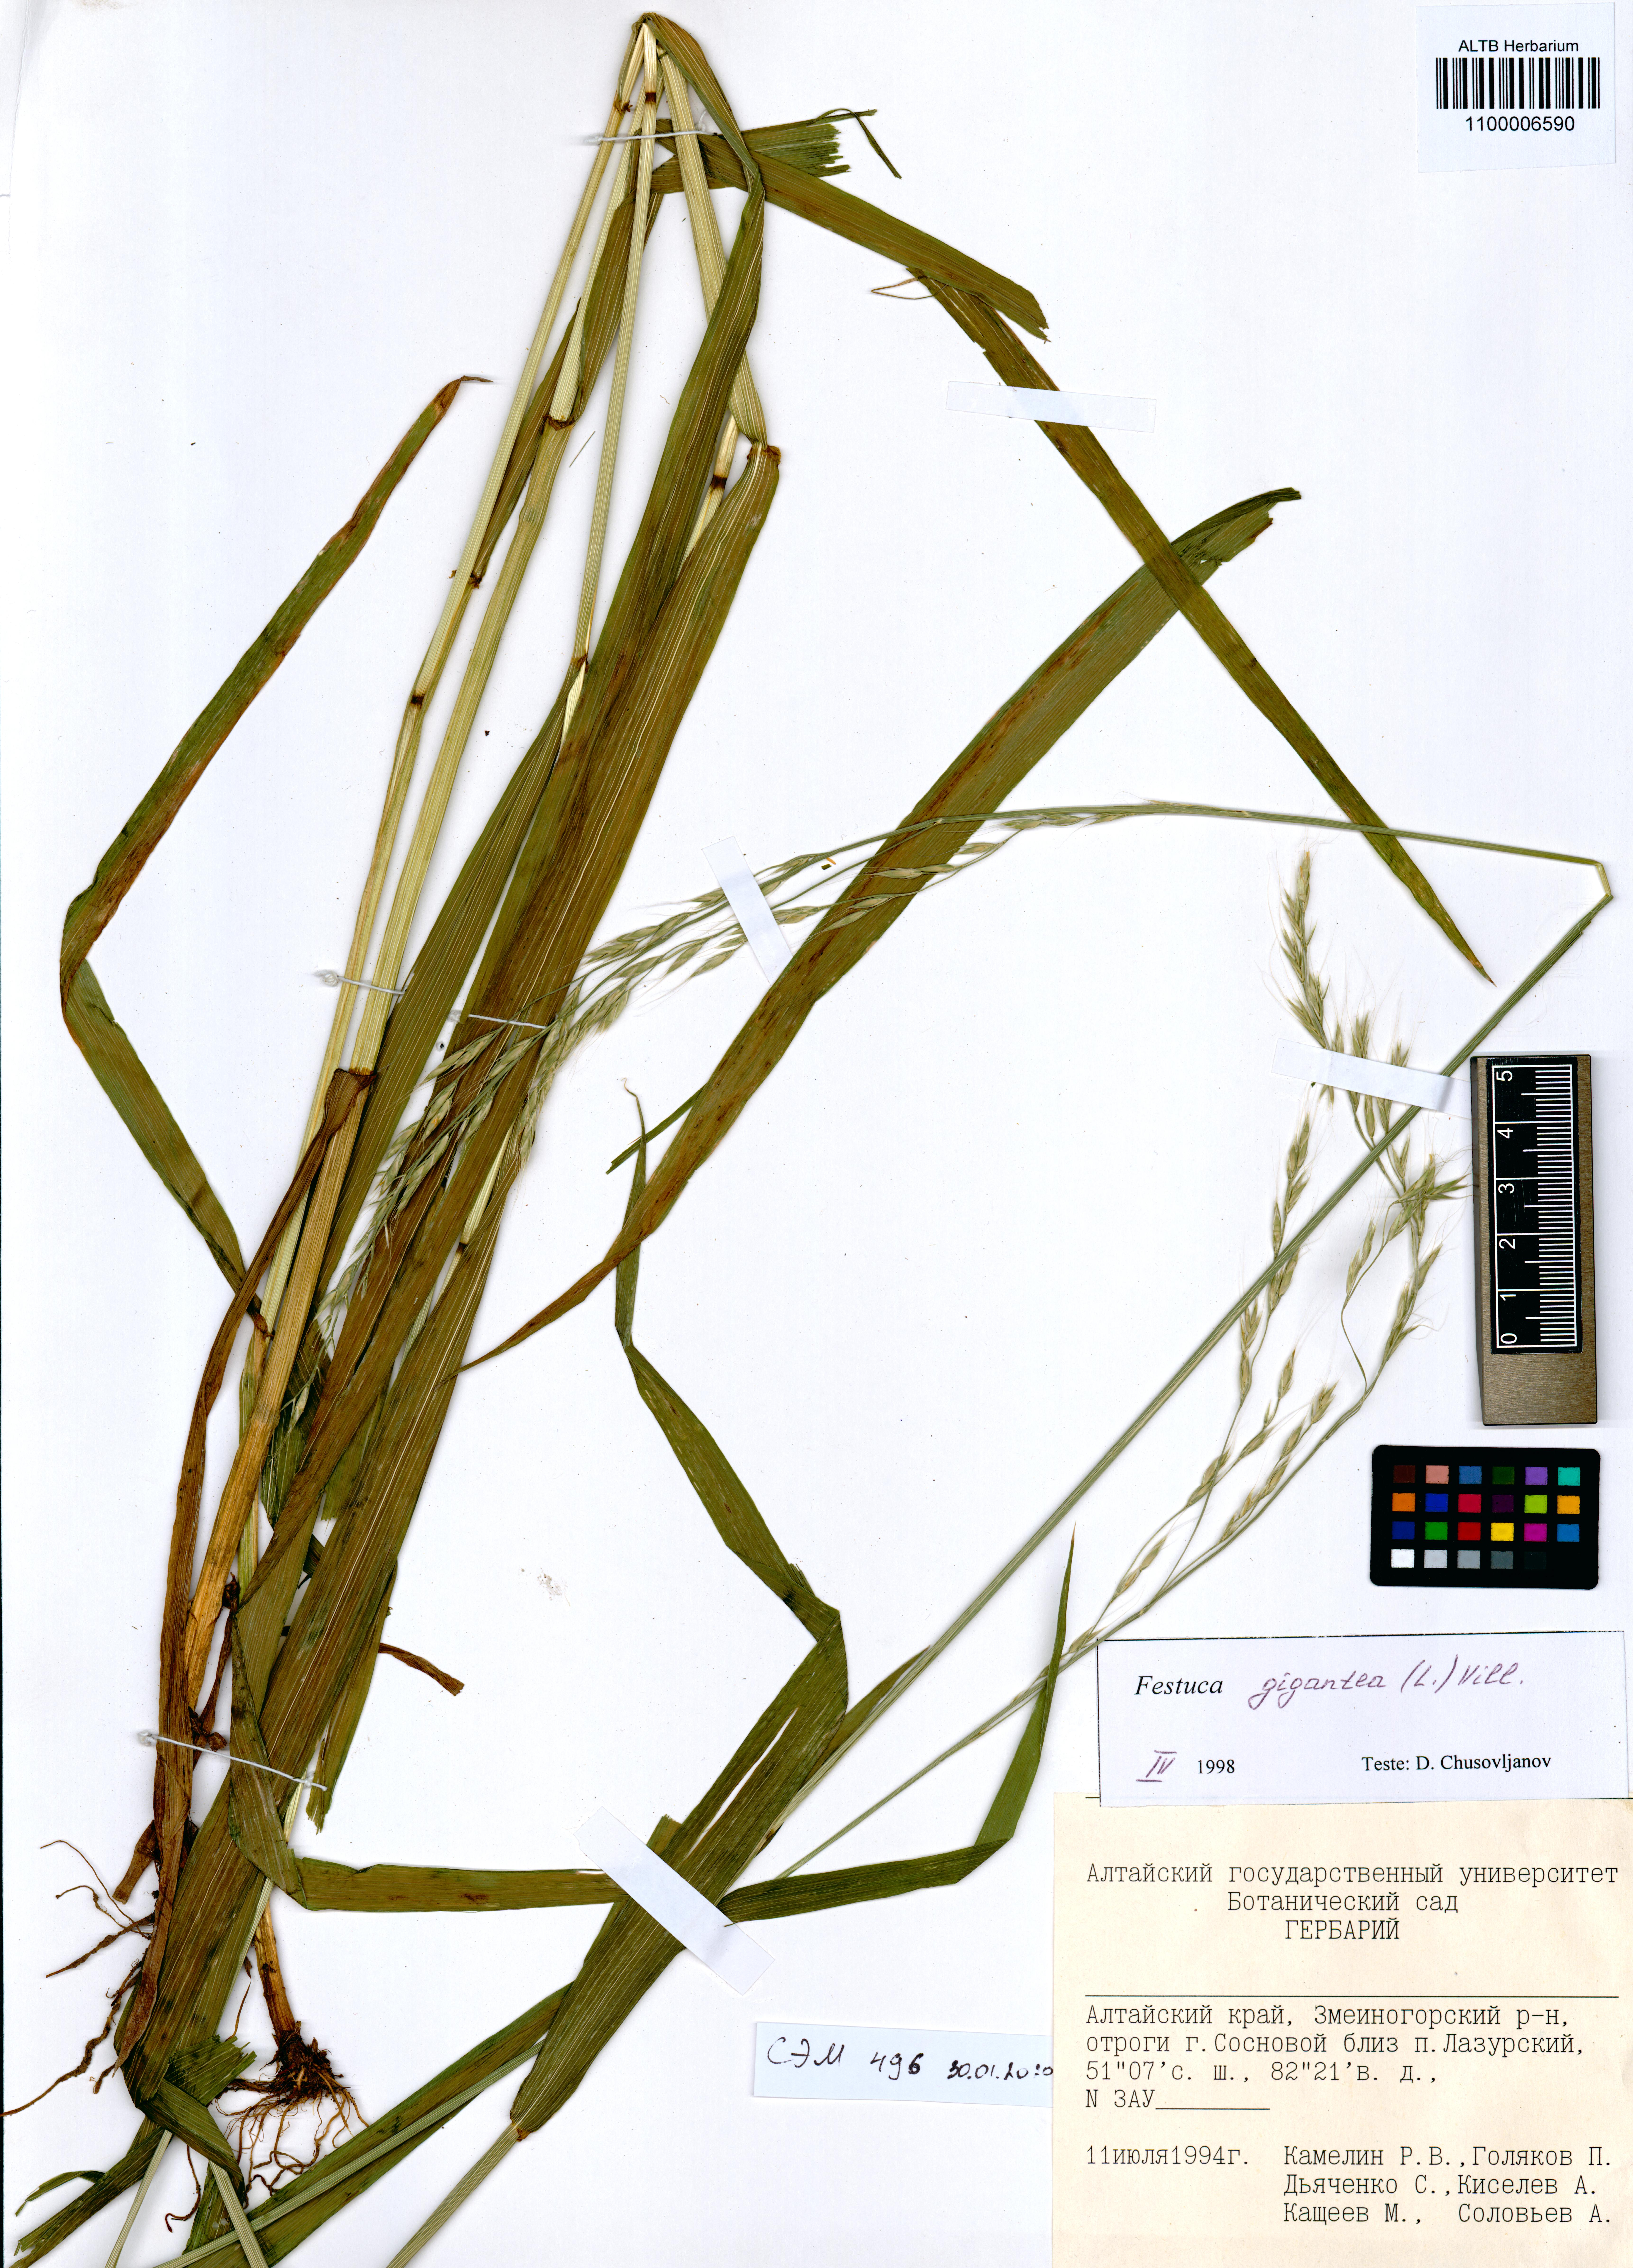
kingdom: Plantae
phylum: Tracheophyta
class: Liliopsida
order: Poales
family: Poaceae
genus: Lolium
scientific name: Lolium giganteum
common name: Giant fescue
